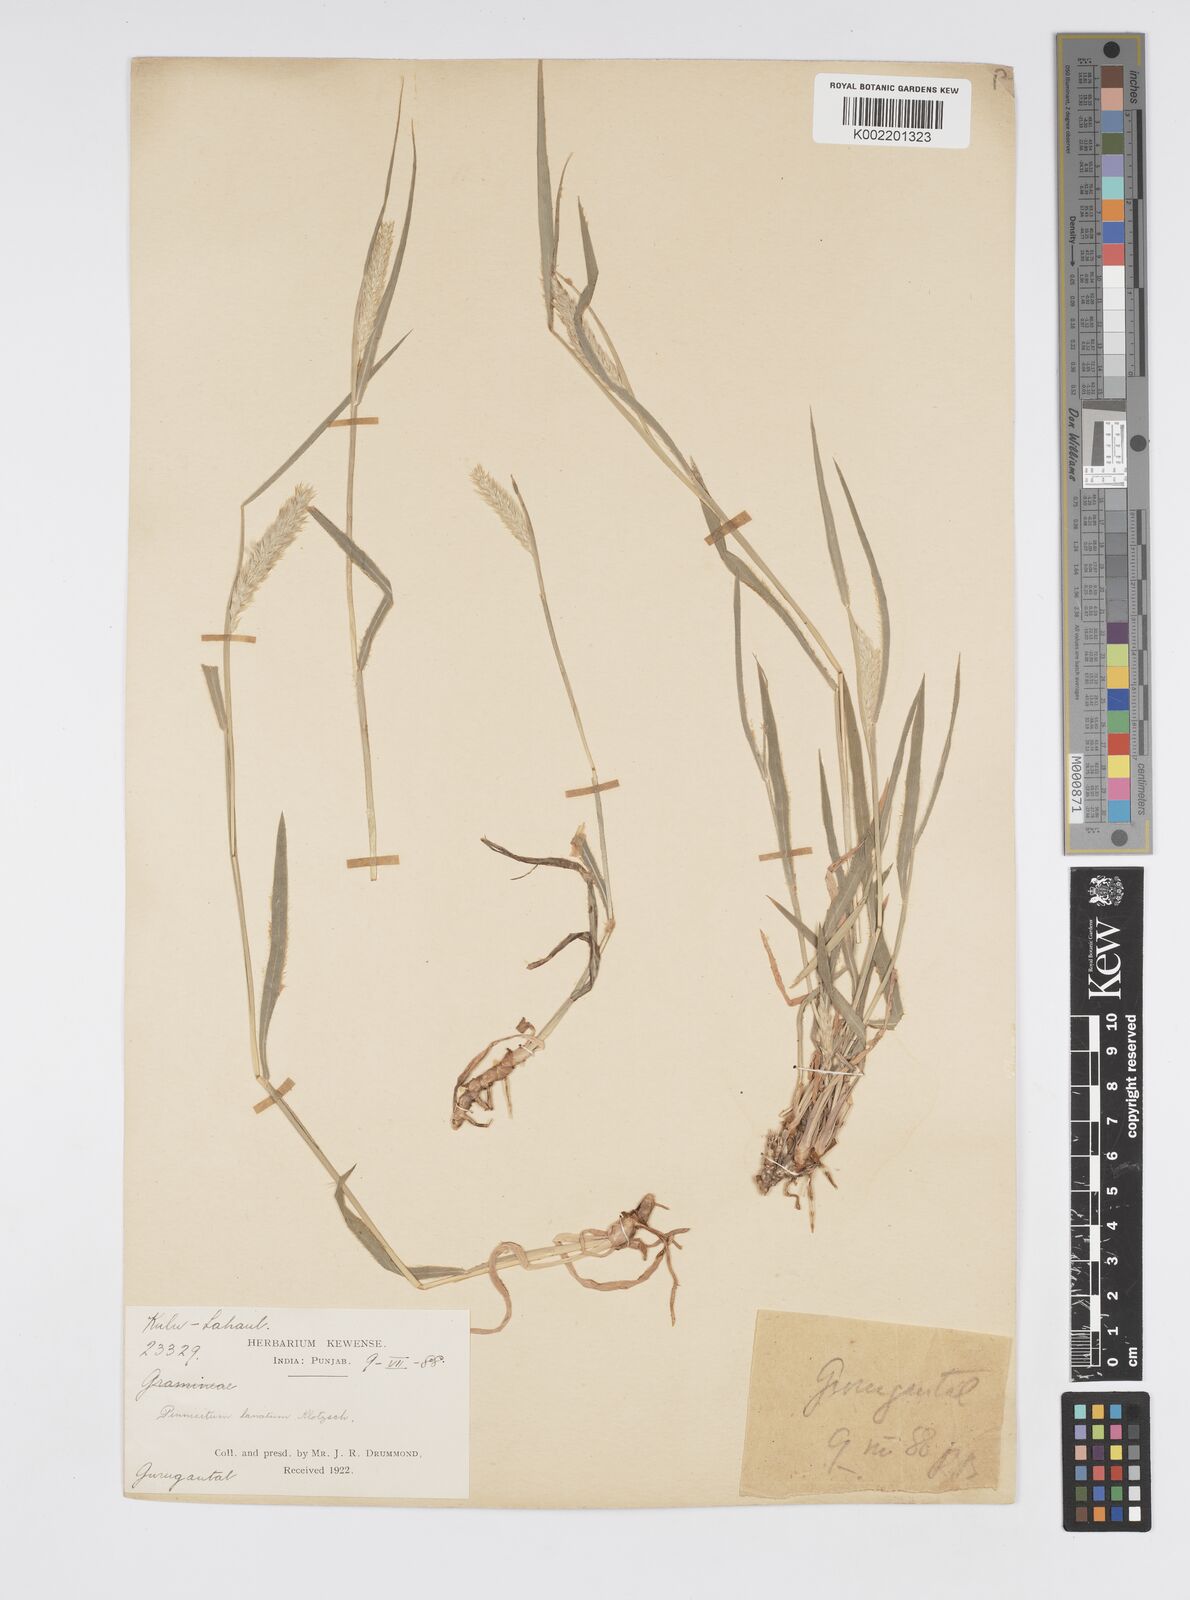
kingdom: Plantae
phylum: Tracheophyta
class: Liliopsida
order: Poales
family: Poaceae
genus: Cenchrus
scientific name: Cenchrus lanatus
